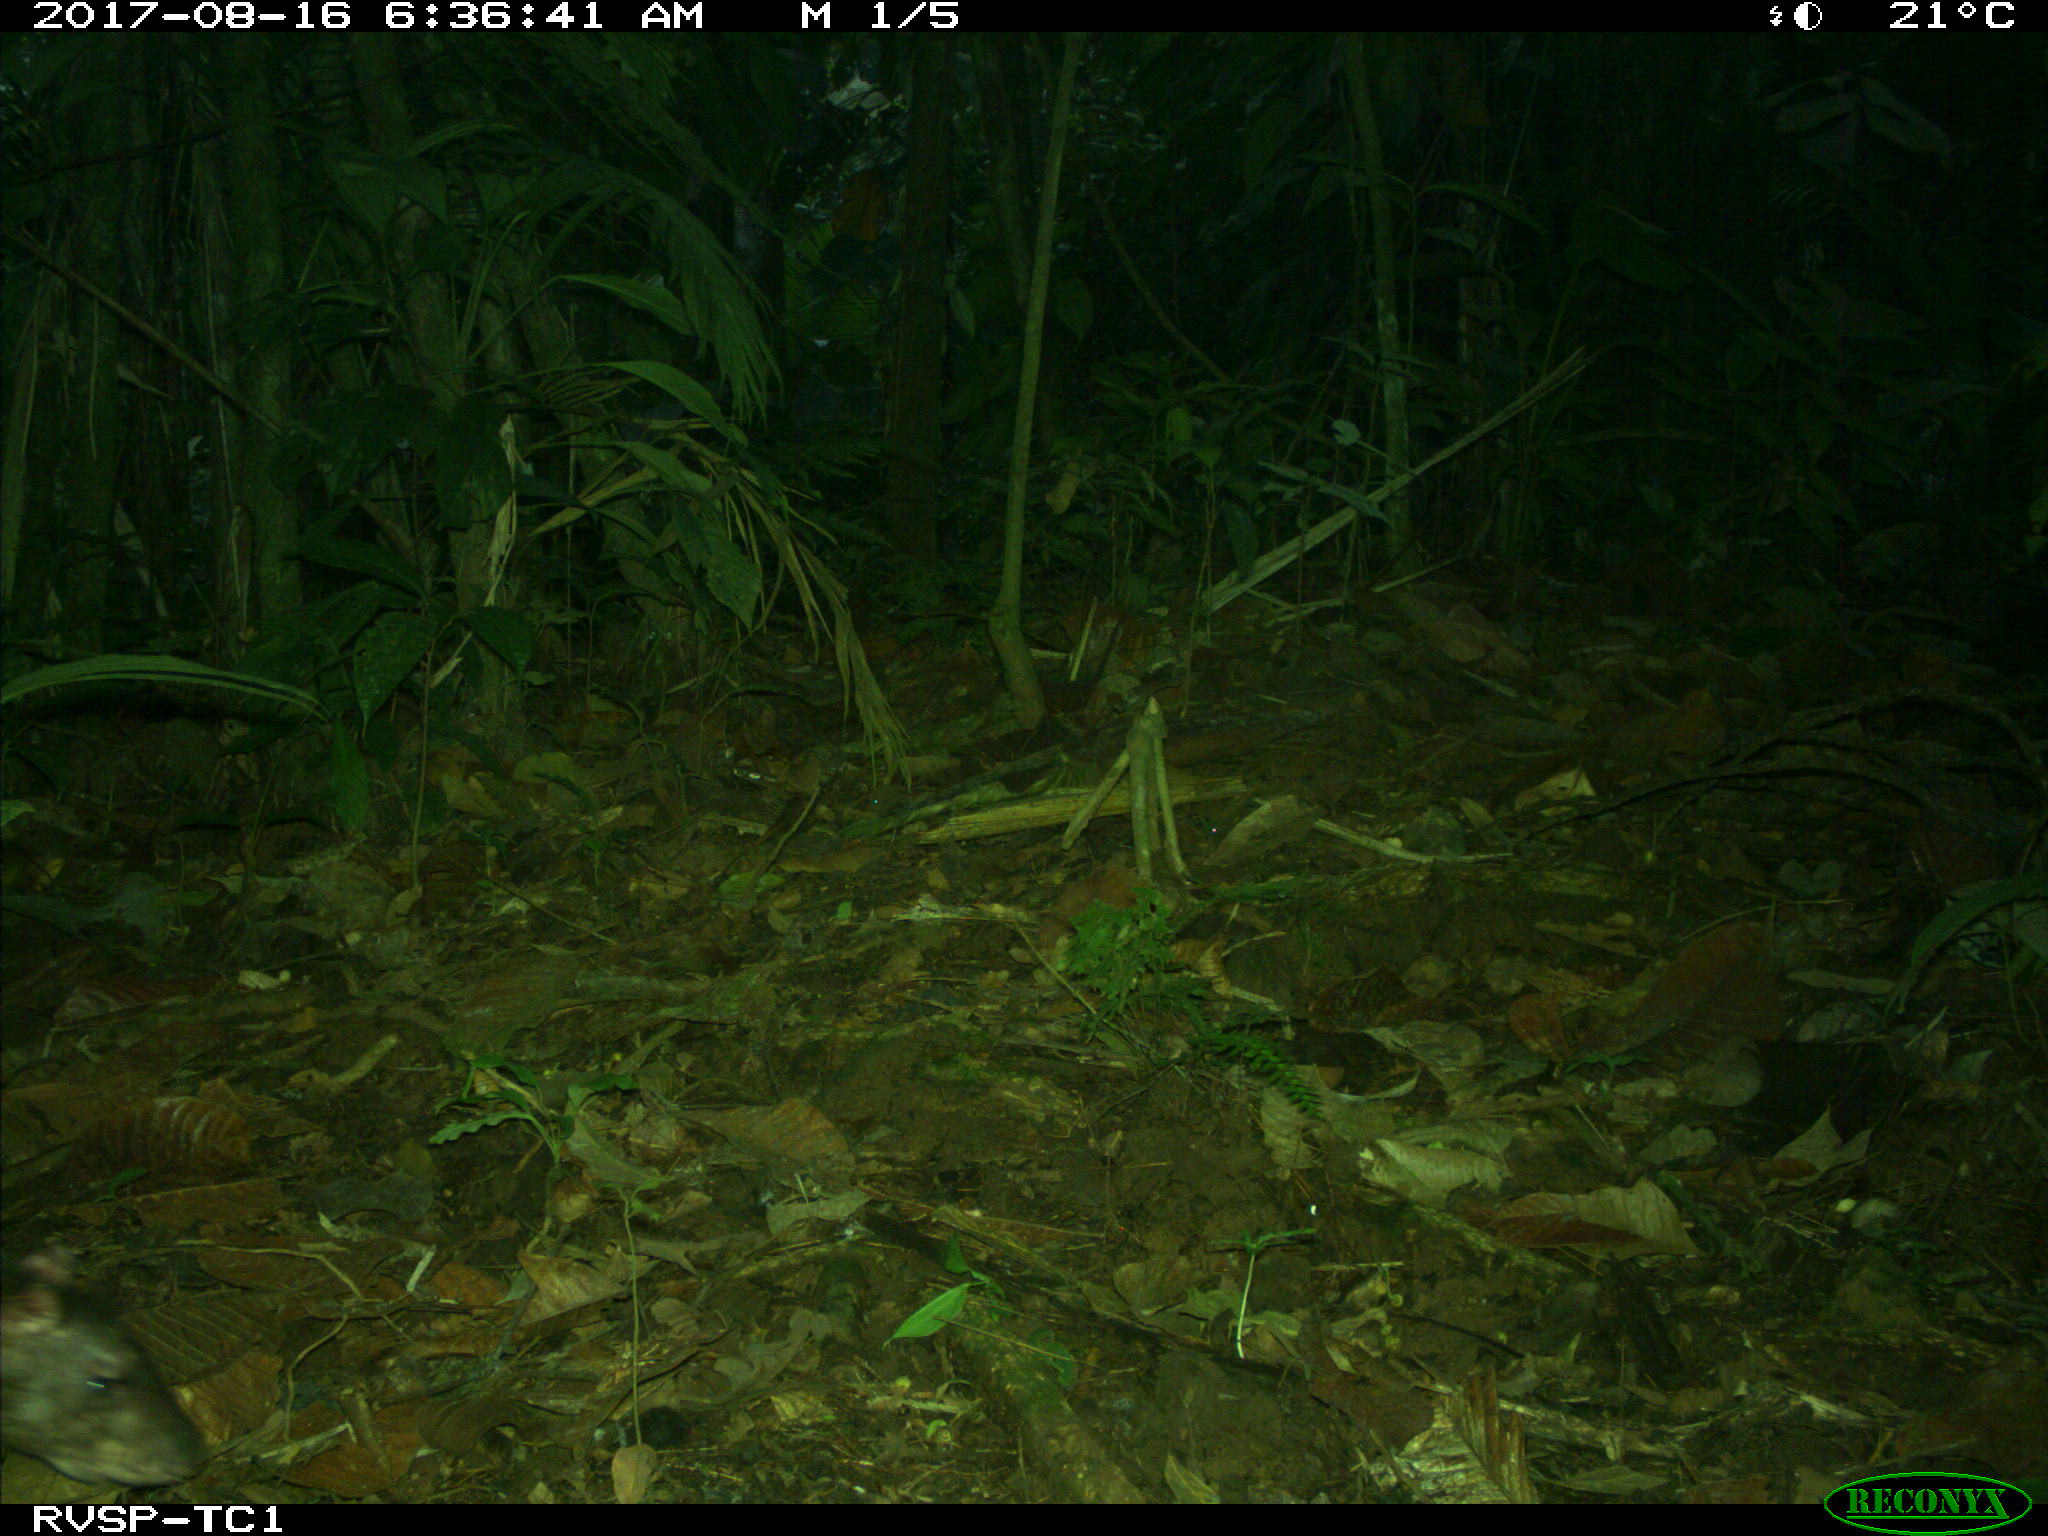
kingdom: Animalia
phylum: Chordata
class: Mammalia
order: Rodentia
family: Dasyproctidae
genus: Dasyprocta
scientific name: Dasyprocta punctata
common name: Central american agouti
